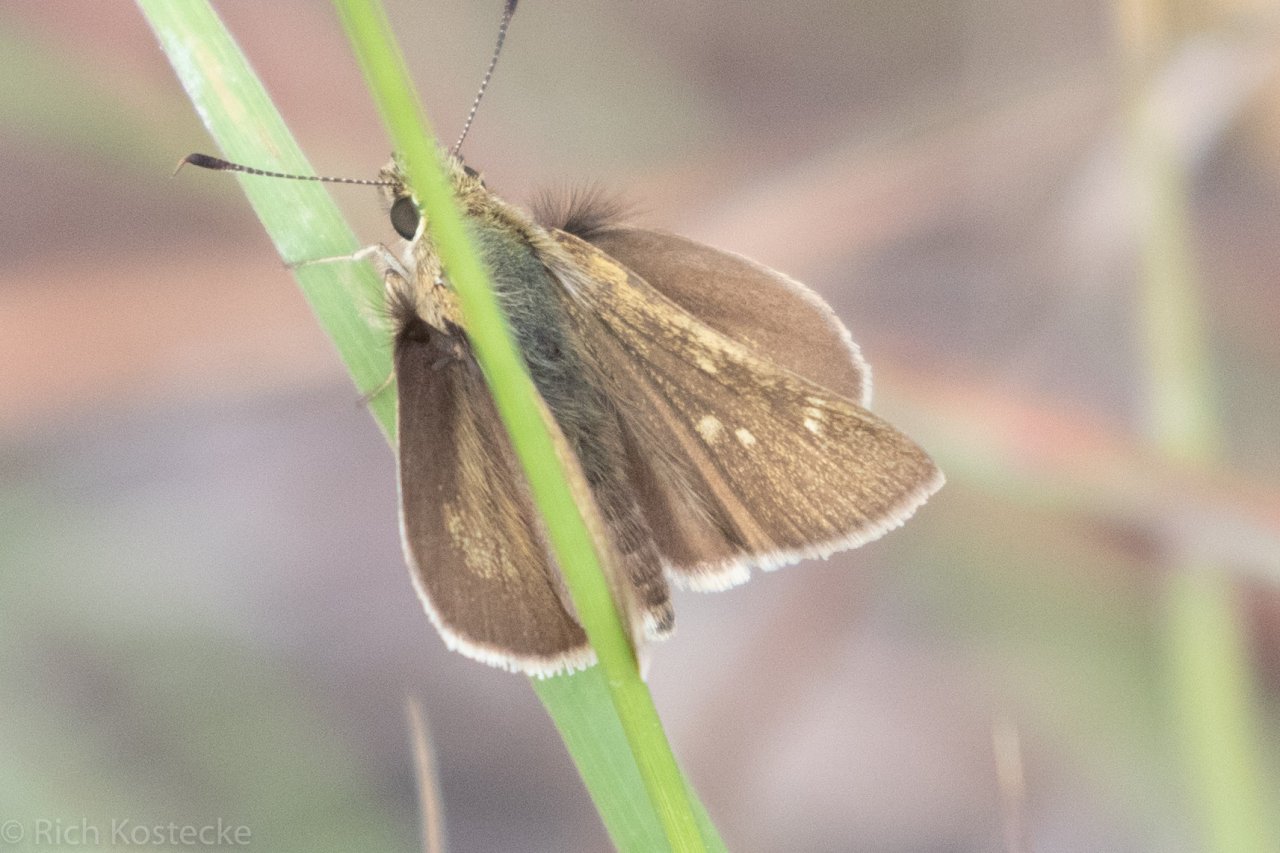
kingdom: Animalia
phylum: Arthropoda
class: Insecta
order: Lepidoptera
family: Hesperiidae
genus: Polites
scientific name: Polites vibex
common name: Whirlabout
